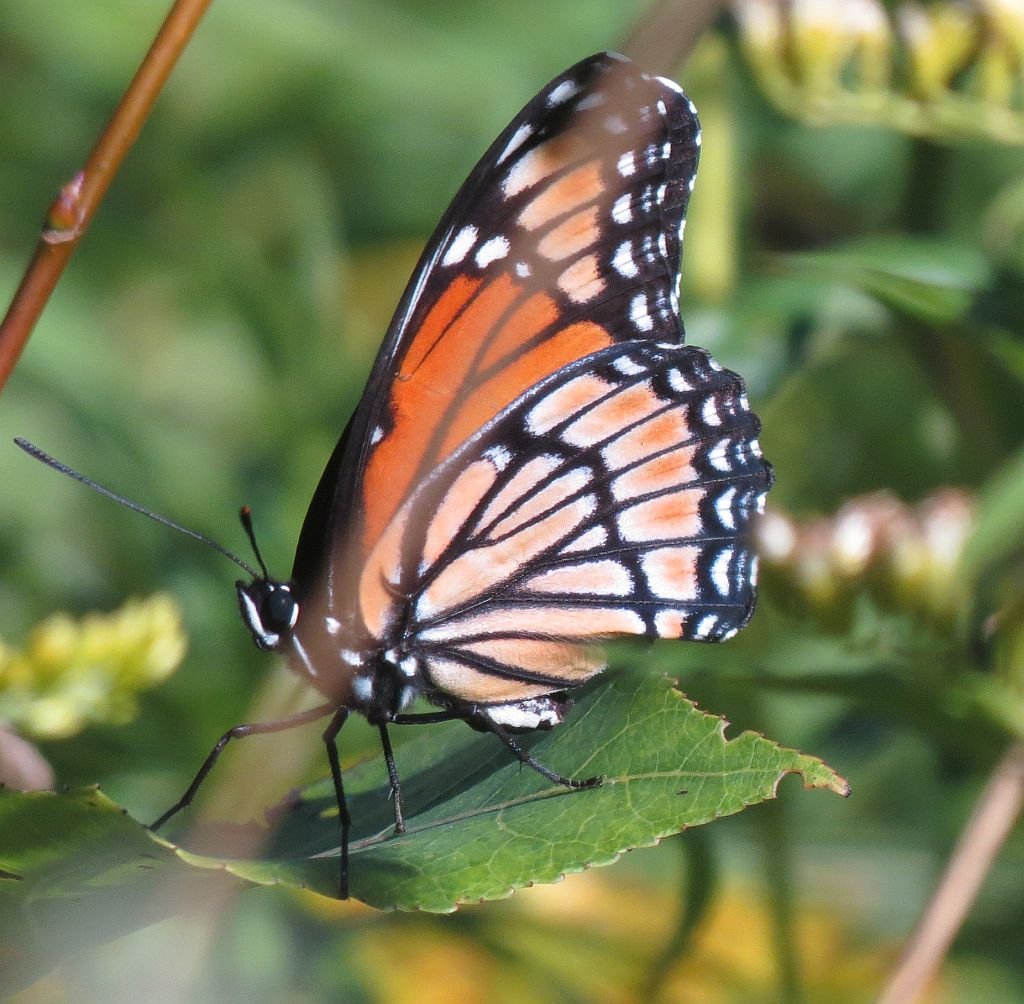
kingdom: Animalia
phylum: Arthropoda
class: Insecta
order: Lepidoptera
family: Nymphalidae
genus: Limenitis
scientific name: Limenitis archippus
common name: Viceroy
